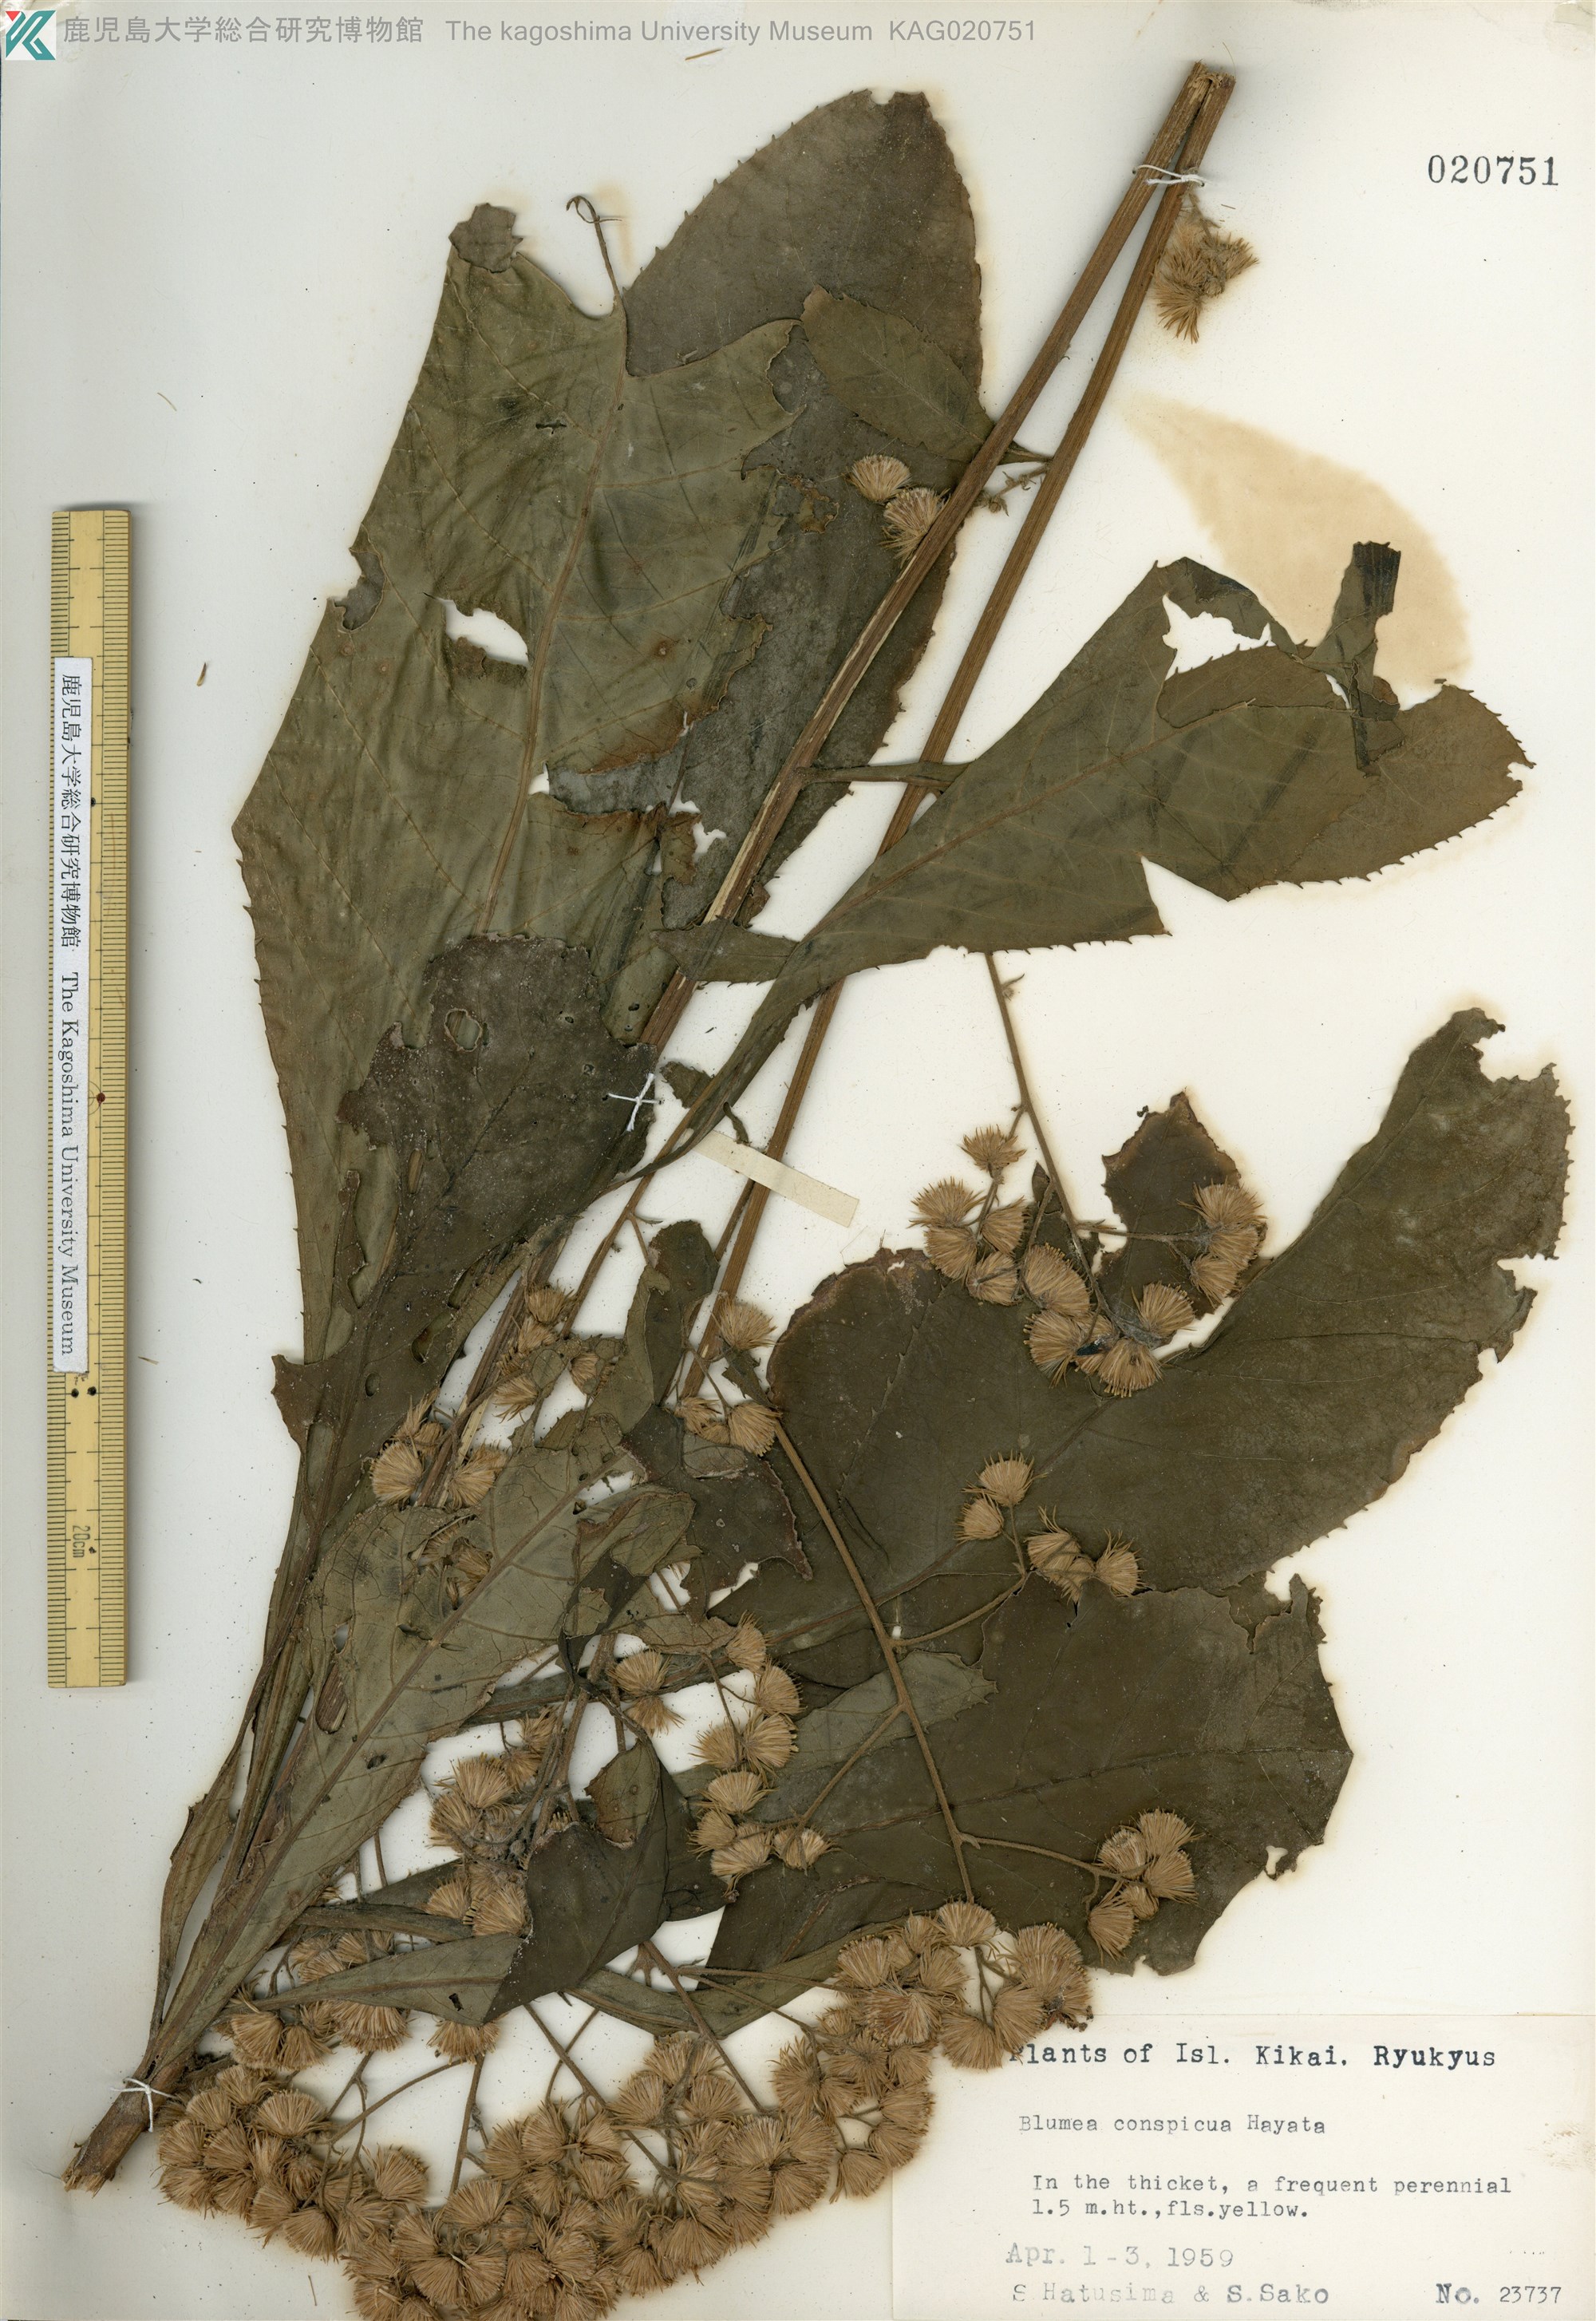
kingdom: Plantae
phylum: Tracheophyta
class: Magnoliopsida
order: Asterales
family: Asteraceae
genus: Blumea
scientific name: Blumea conspicua
